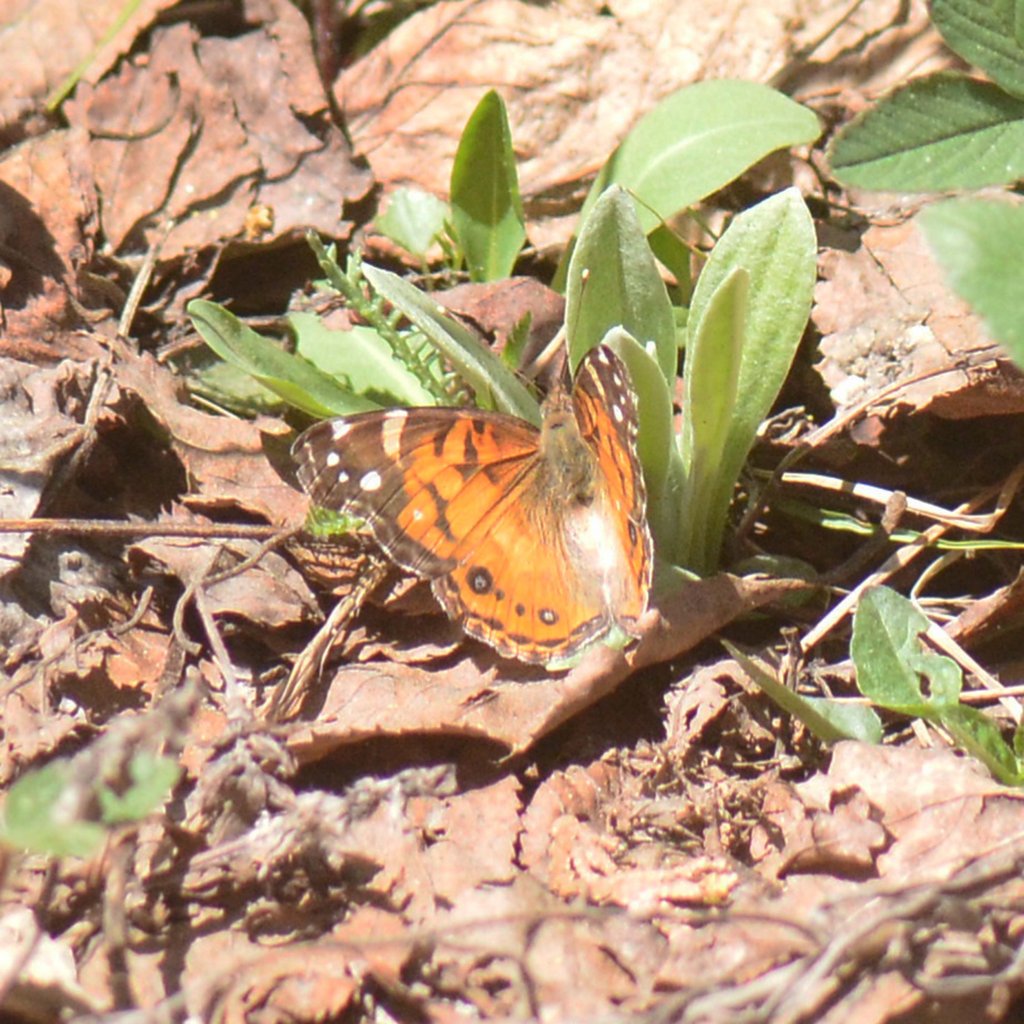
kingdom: Animalia
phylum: Arthropoda
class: Insecta
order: Lepidoptera
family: Nymphalidae
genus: Vanessa
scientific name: Vanessa virginiensis
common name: American Lady
